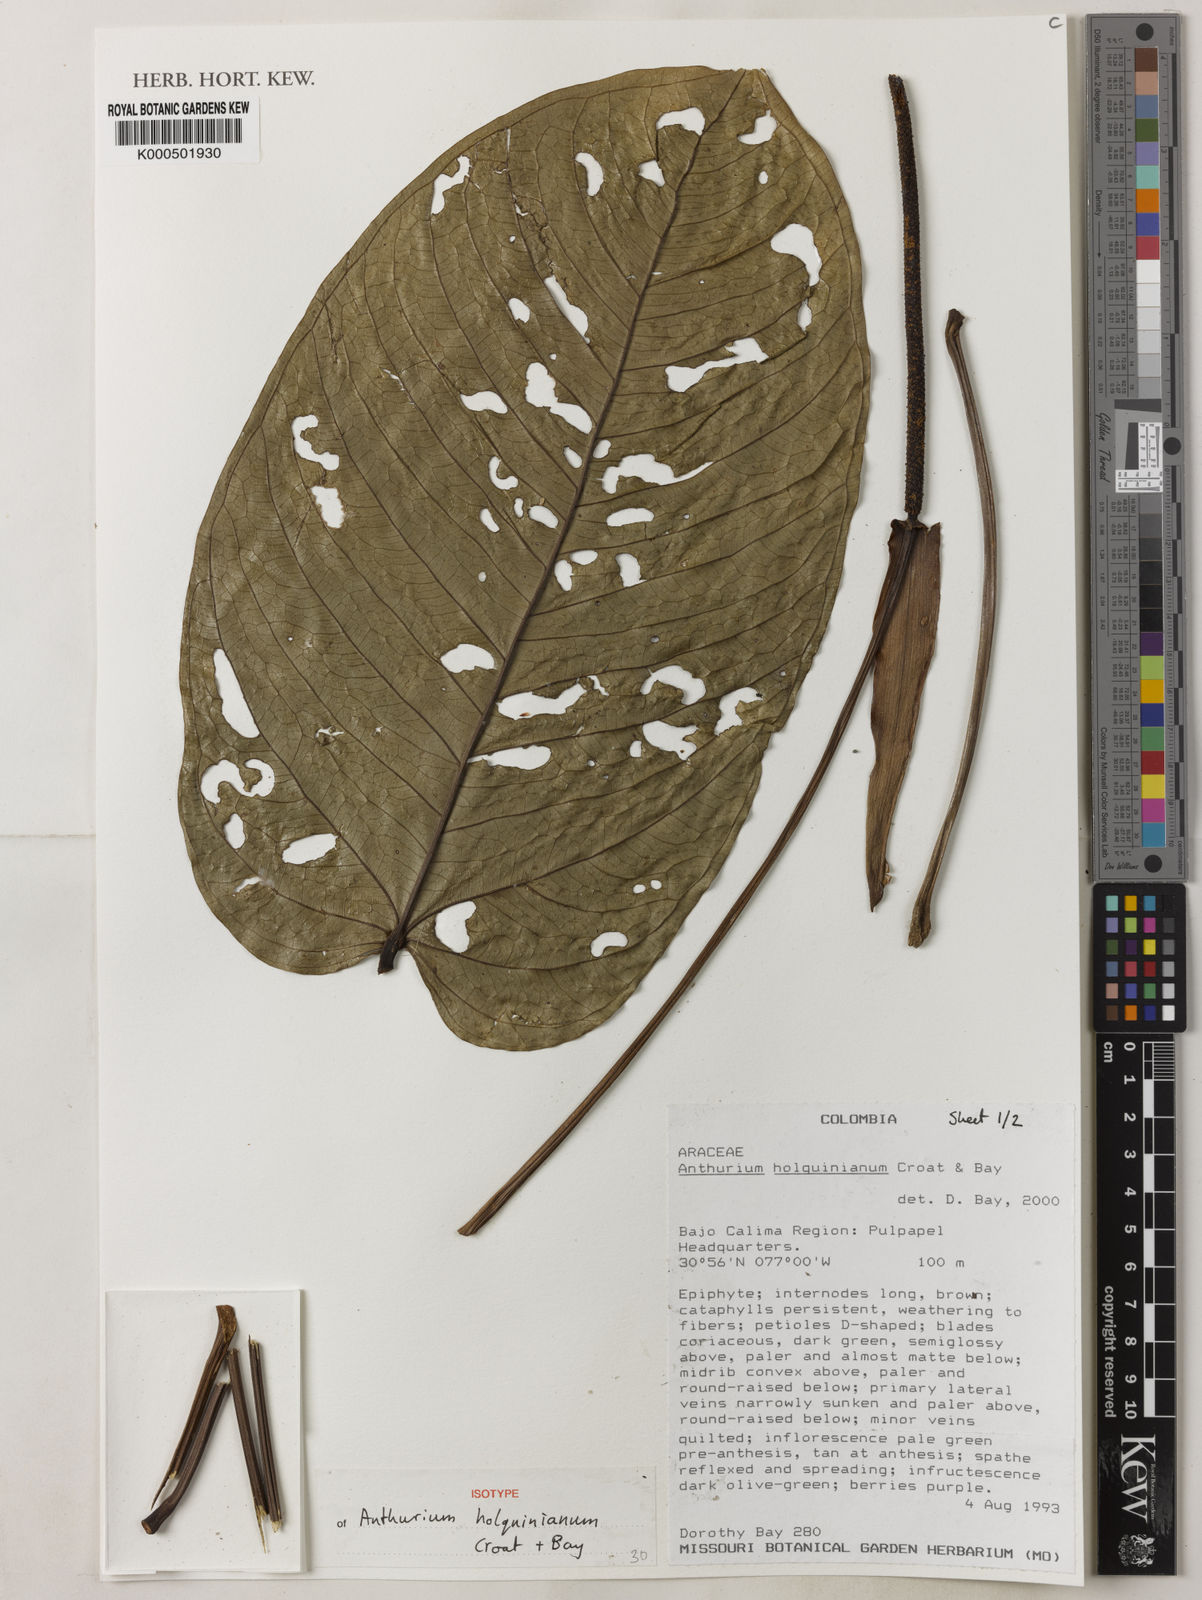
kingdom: Plantae
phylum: Tracheophyta
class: Liliopsida
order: Alismatales
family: Araceae
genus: Anthurium
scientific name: Anthurium holquinianum
